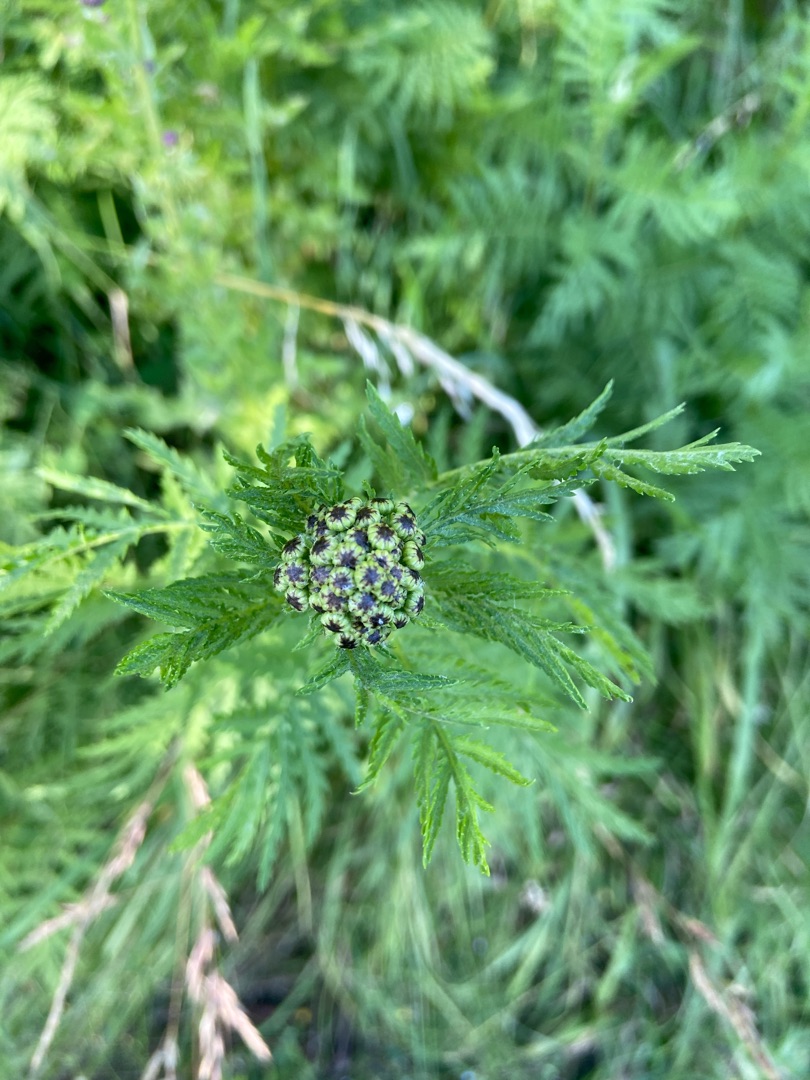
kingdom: Plantae
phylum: Tracheophyta
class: Magnoliopsida
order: Asterales
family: Asteraceae
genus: Tanacetum
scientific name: Tanacetum vulgare
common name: Rejnfan
